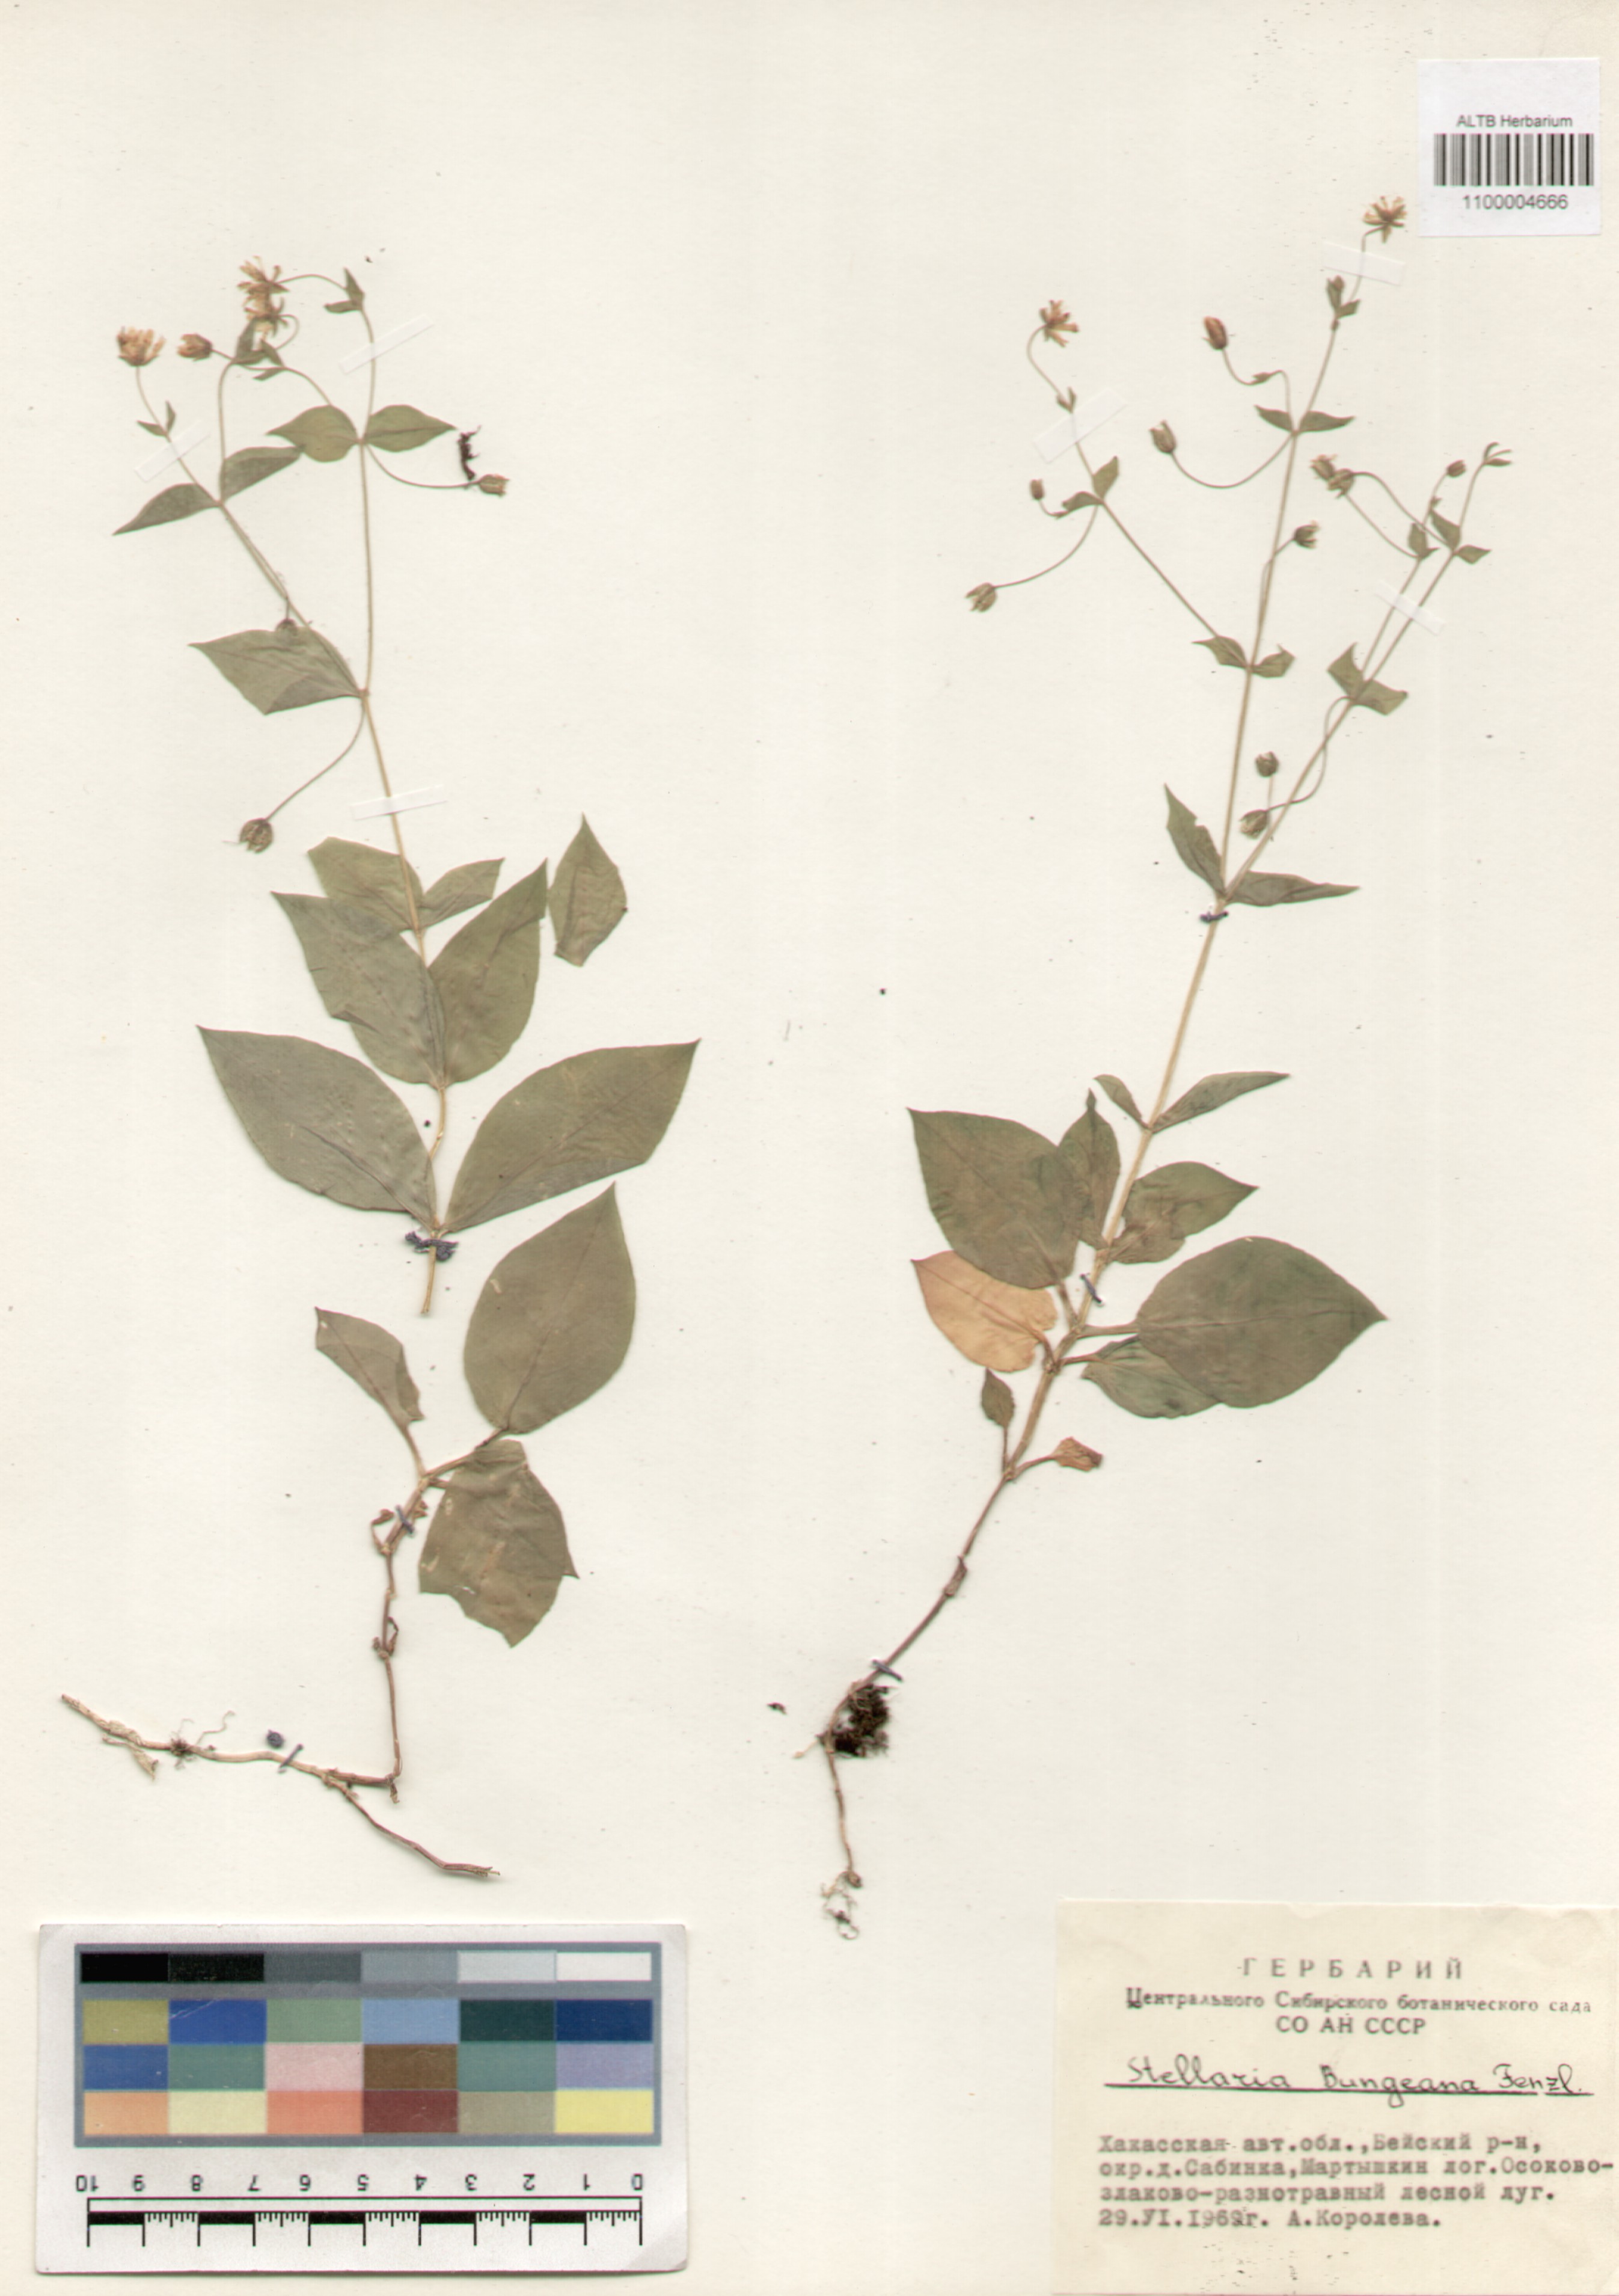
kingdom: Plantae
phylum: Tracheophyta
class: Magnoliopsida
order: Caryophyllales
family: Caryophyllaceae
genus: Stellaria
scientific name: Stellaria bungeana
